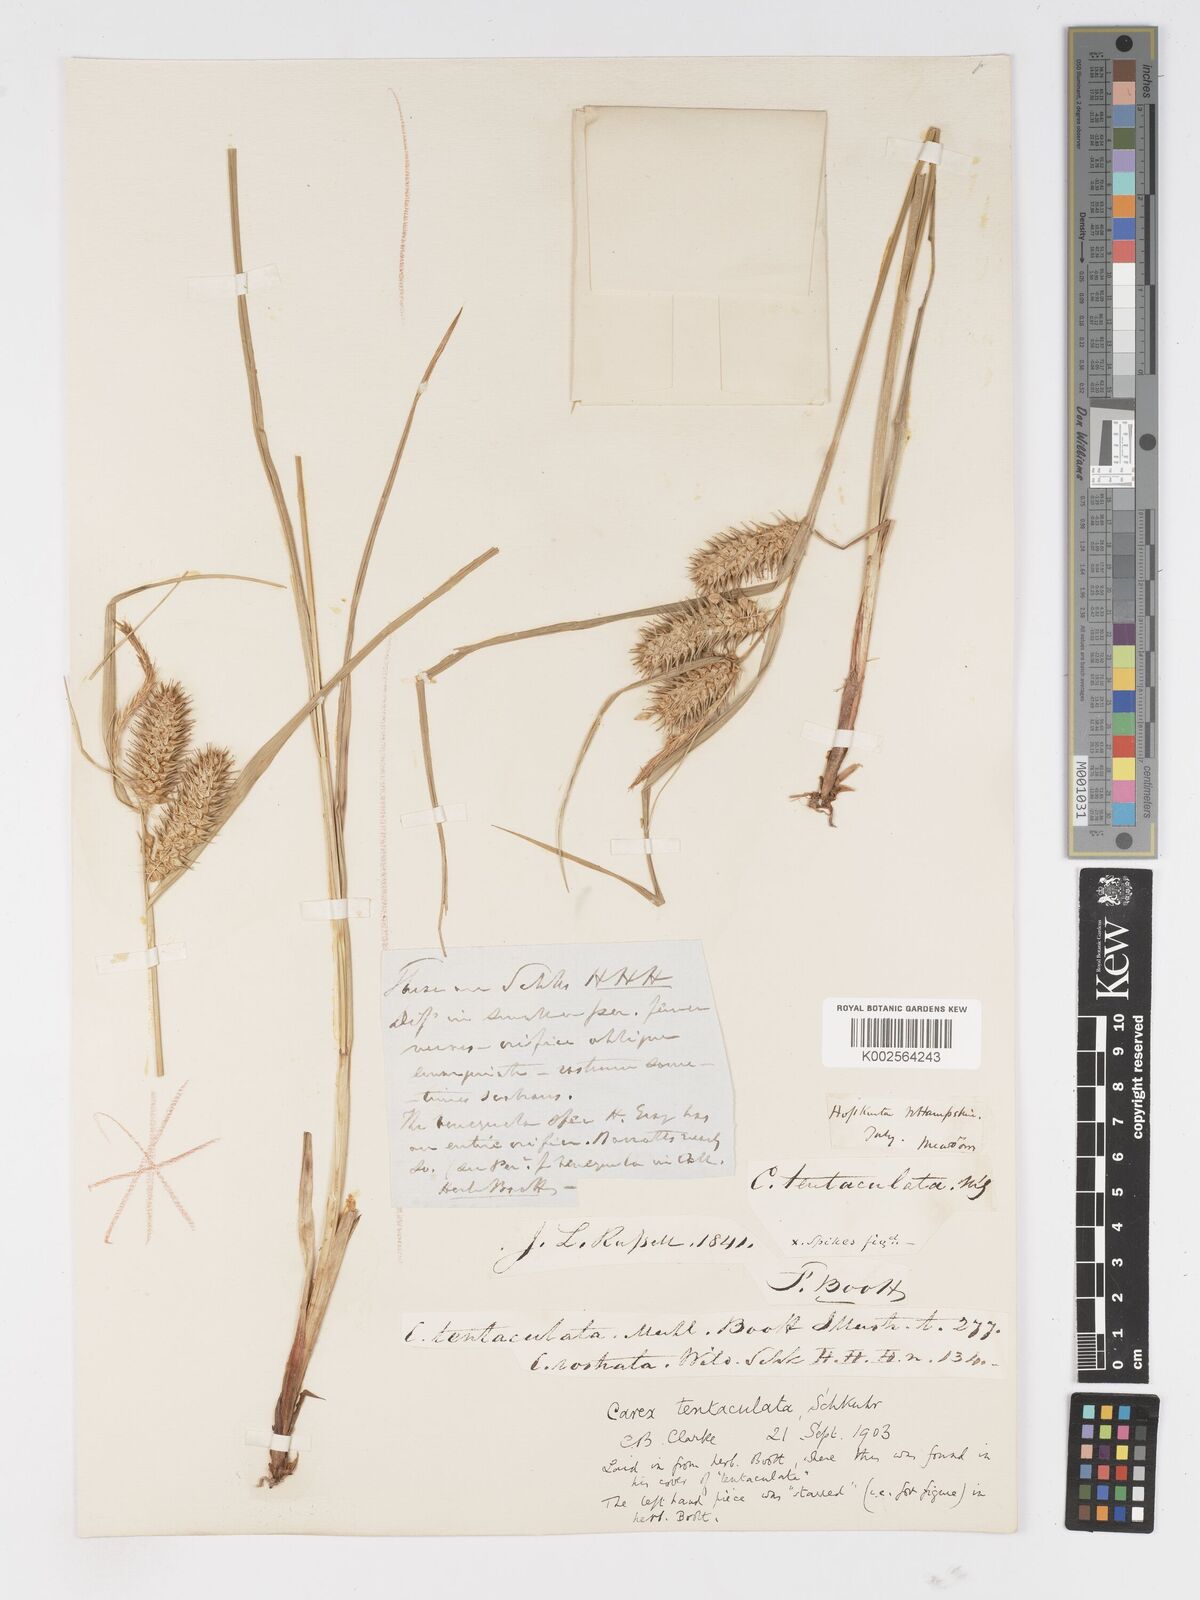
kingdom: Plantae
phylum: Tracheophyta
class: Liliopsida
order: Poales
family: Cyperaceae
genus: Carex
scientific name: Carex lurida
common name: Sallow sedge
